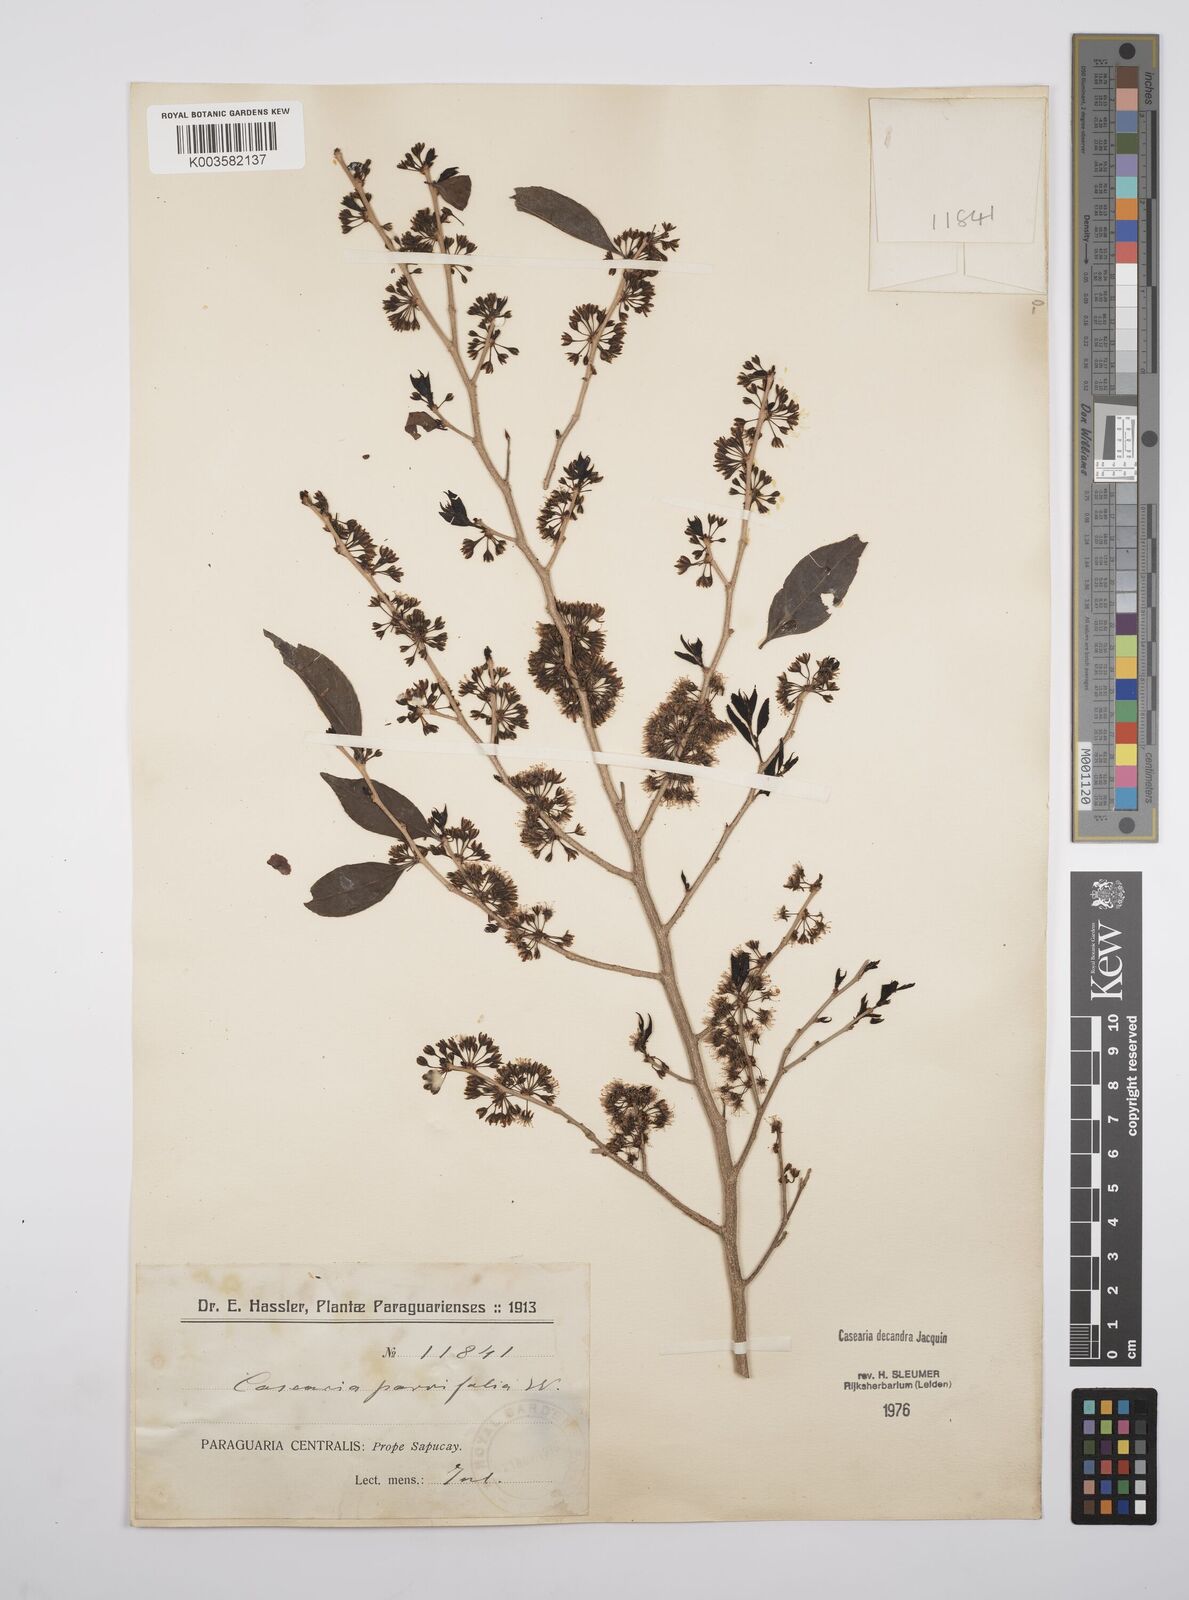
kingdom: Plantae
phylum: Tracheophyta
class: Magnoliopsida
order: Malpighiales
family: Salicaceae
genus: Casearia
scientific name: Casearia
